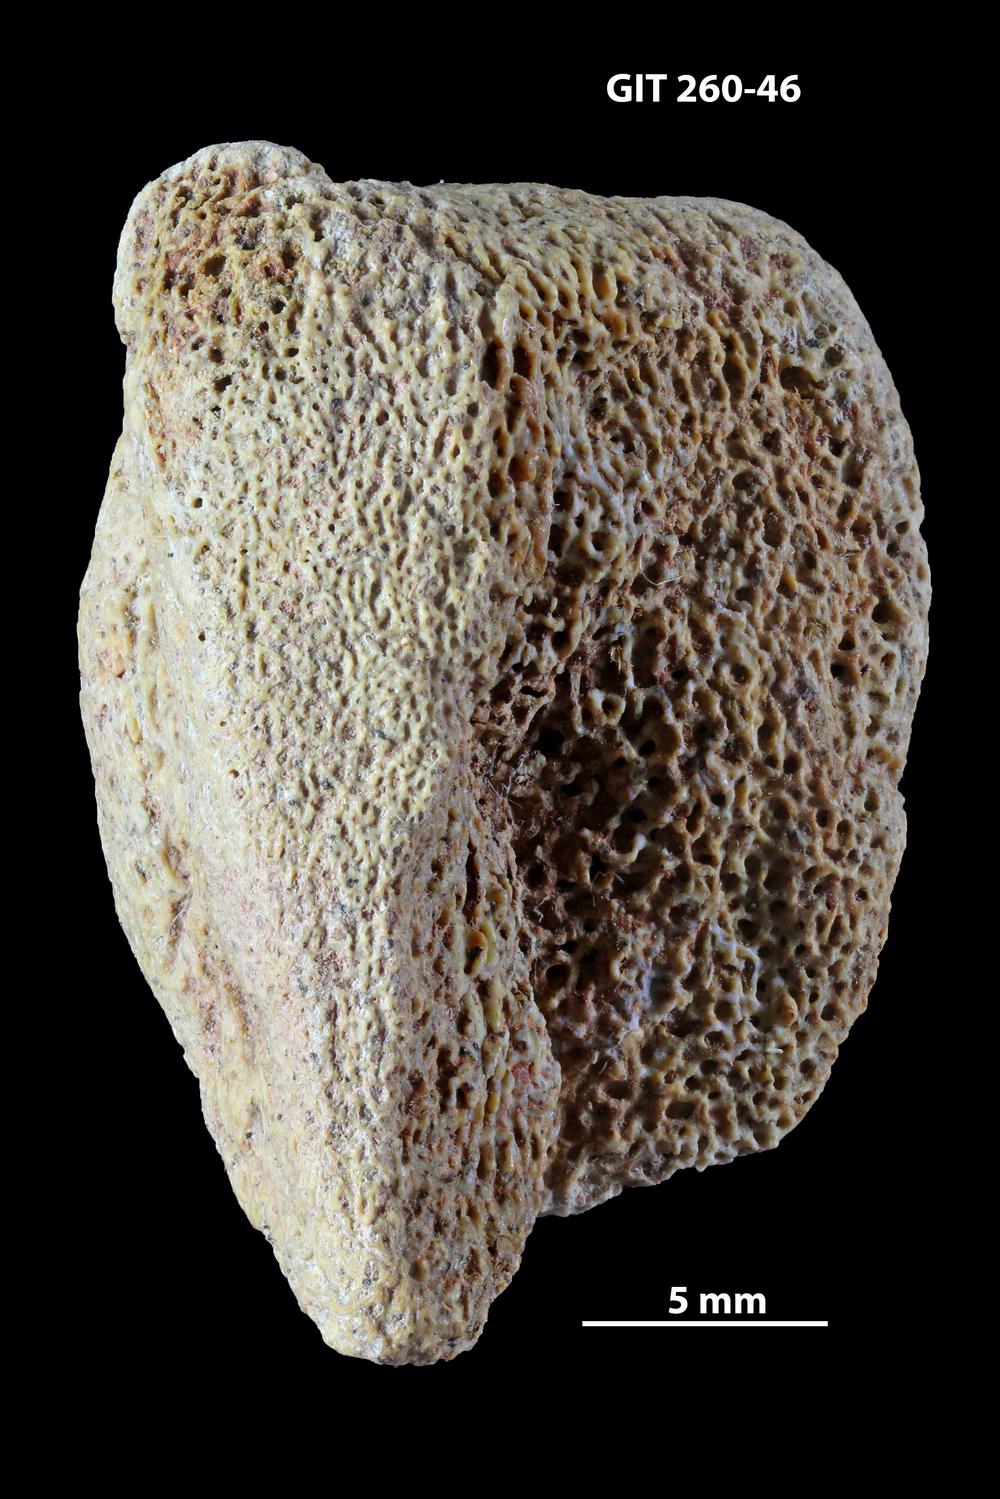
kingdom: Animalia
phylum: Chordata
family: Homostiidae
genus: Homostius
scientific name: Homostius
